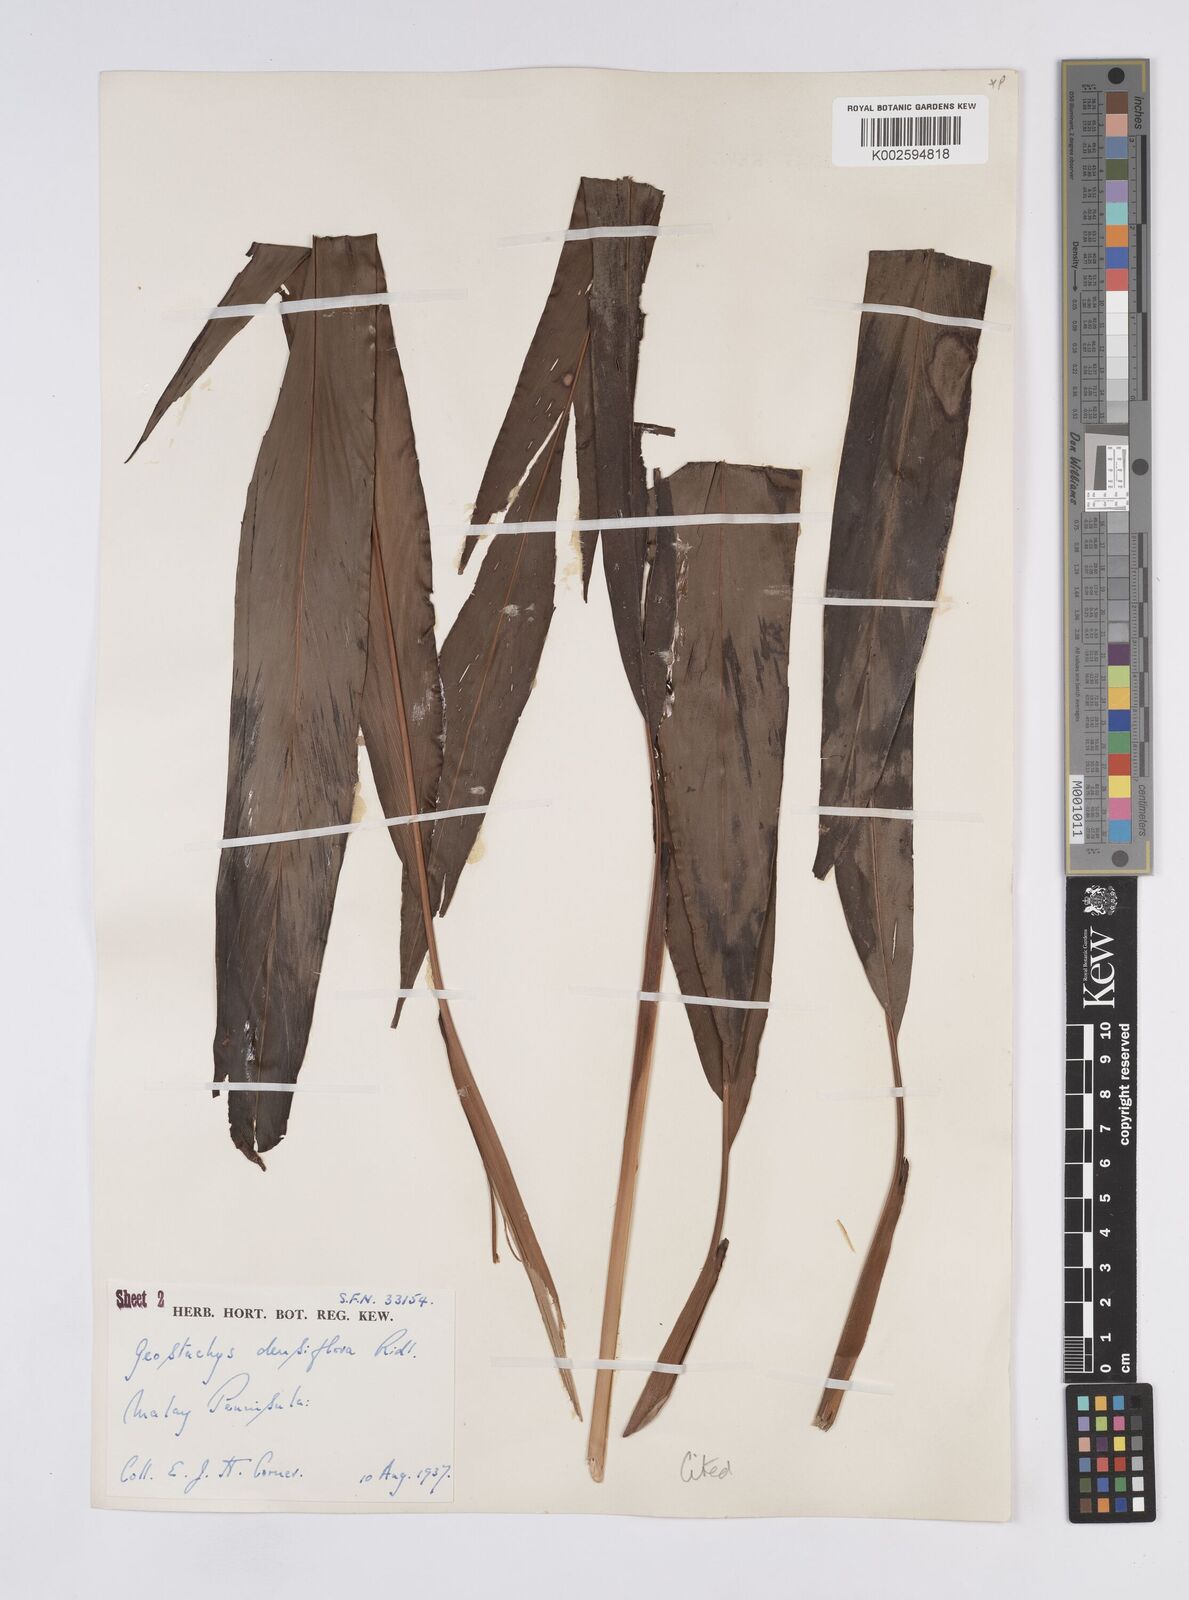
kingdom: Plantae
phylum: Tracheophyta
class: Liliopsida
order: Zingiberales
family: Zingiberaceae
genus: Geostachys
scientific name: Geostachys densiflora
